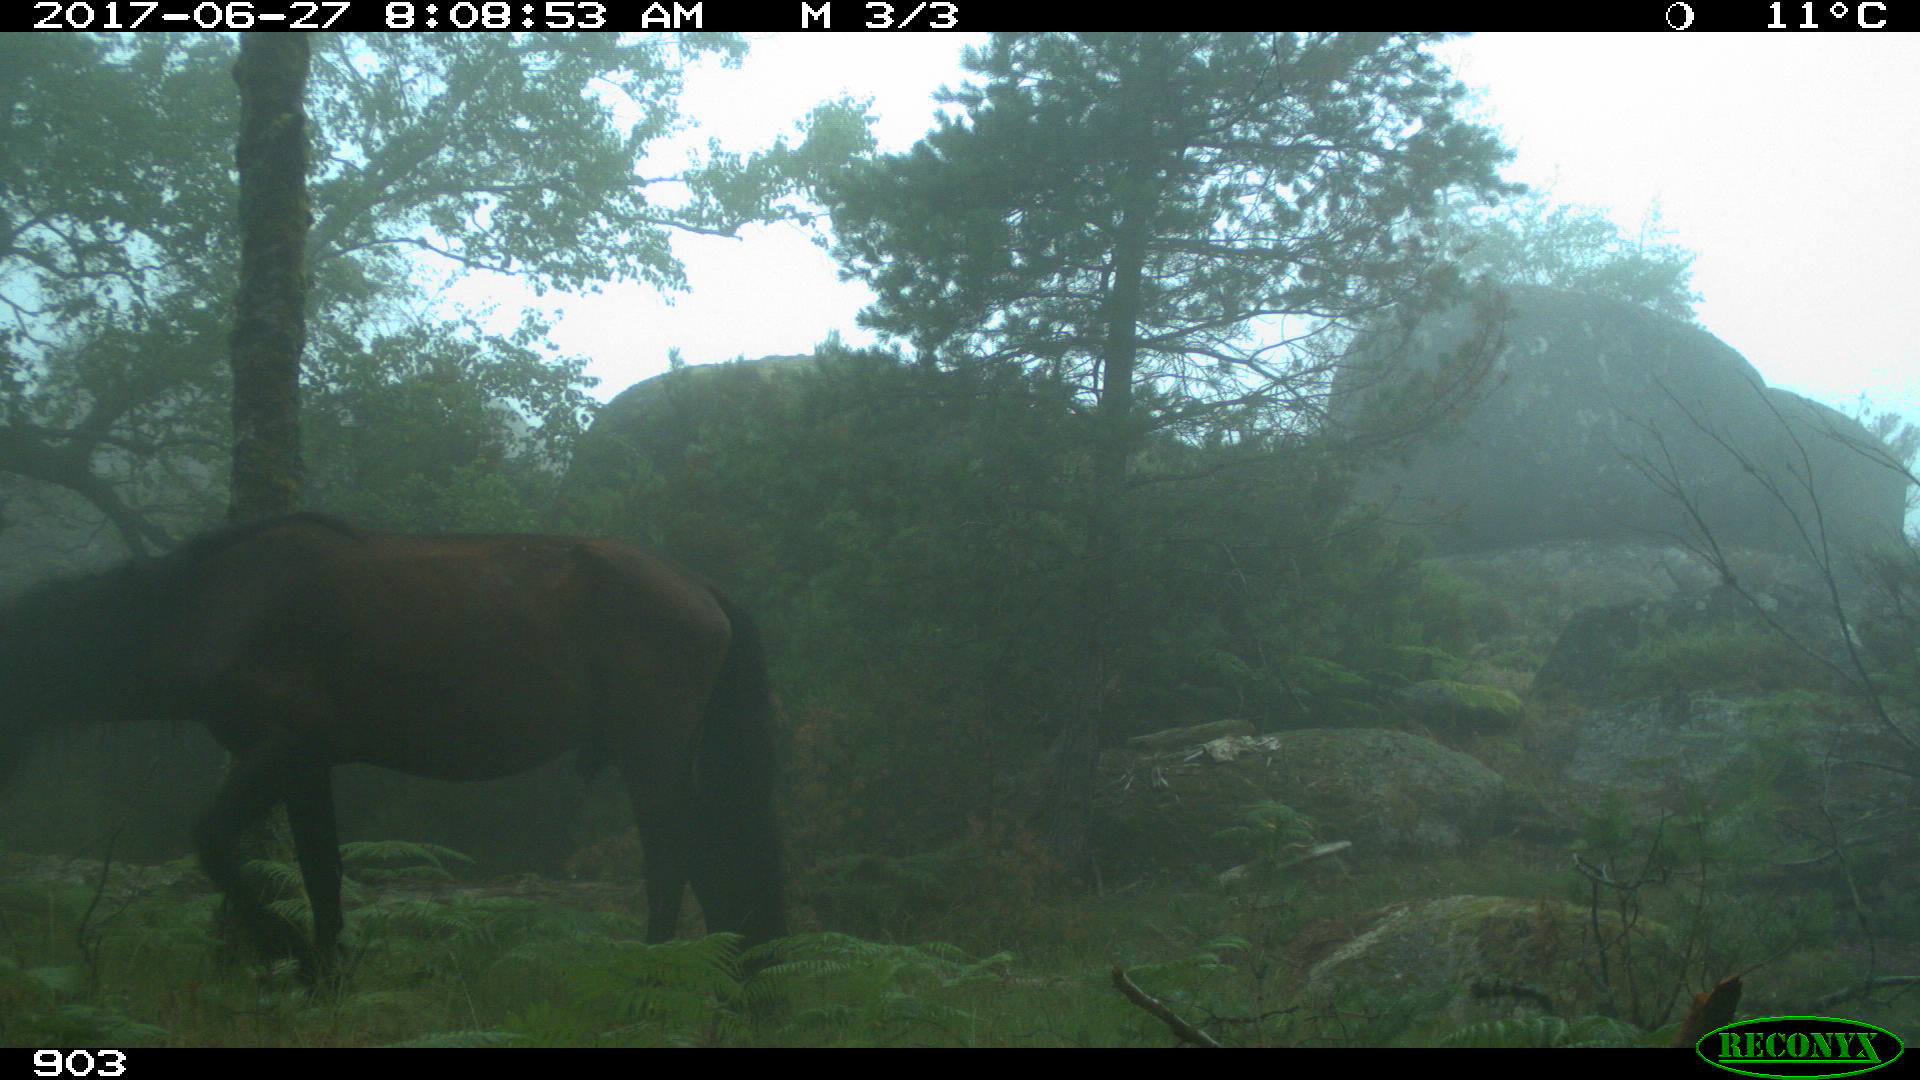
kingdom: Animalia
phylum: Chordata
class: Mammalia
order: Perissodactyla
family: Equidae
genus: Equus
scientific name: Equus caballus
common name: Horse
